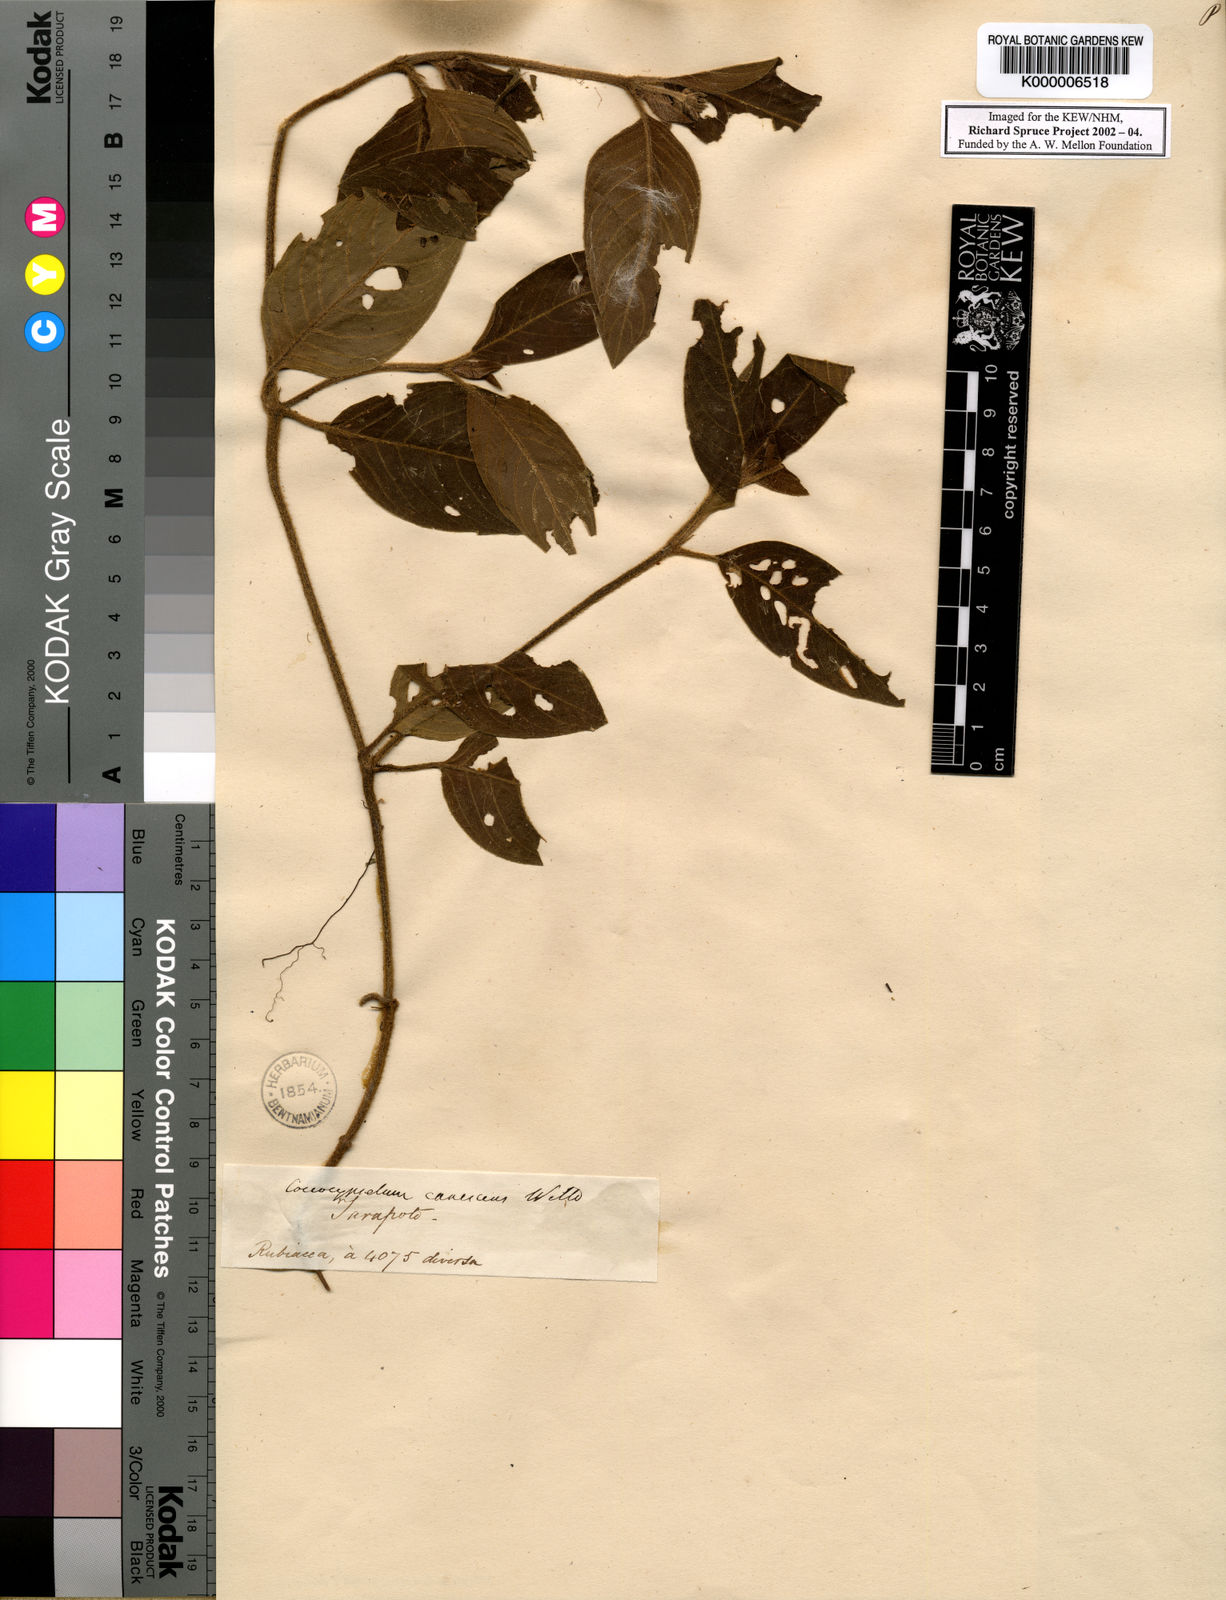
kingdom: Plantae
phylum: Tracheophyta
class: Magnoliopsida
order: Gentianales
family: Rubiaceae
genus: Coccocypselum
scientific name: Coccocypselum lanceolatum
